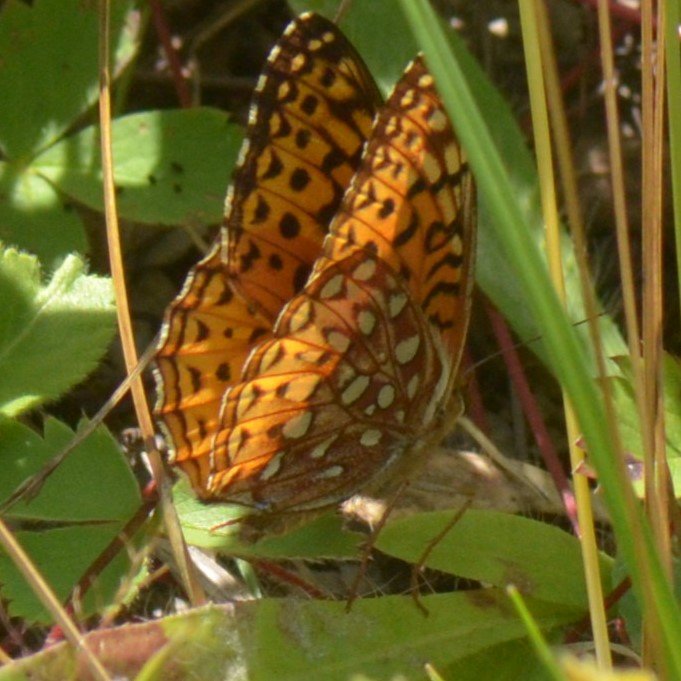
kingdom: Animalia
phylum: Arthropoda
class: Insecta
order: Lepidoptera
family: Nymphalidae
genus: Speyeria
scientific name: Speyeria aphrodite
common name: Aphrodite Fritillary
